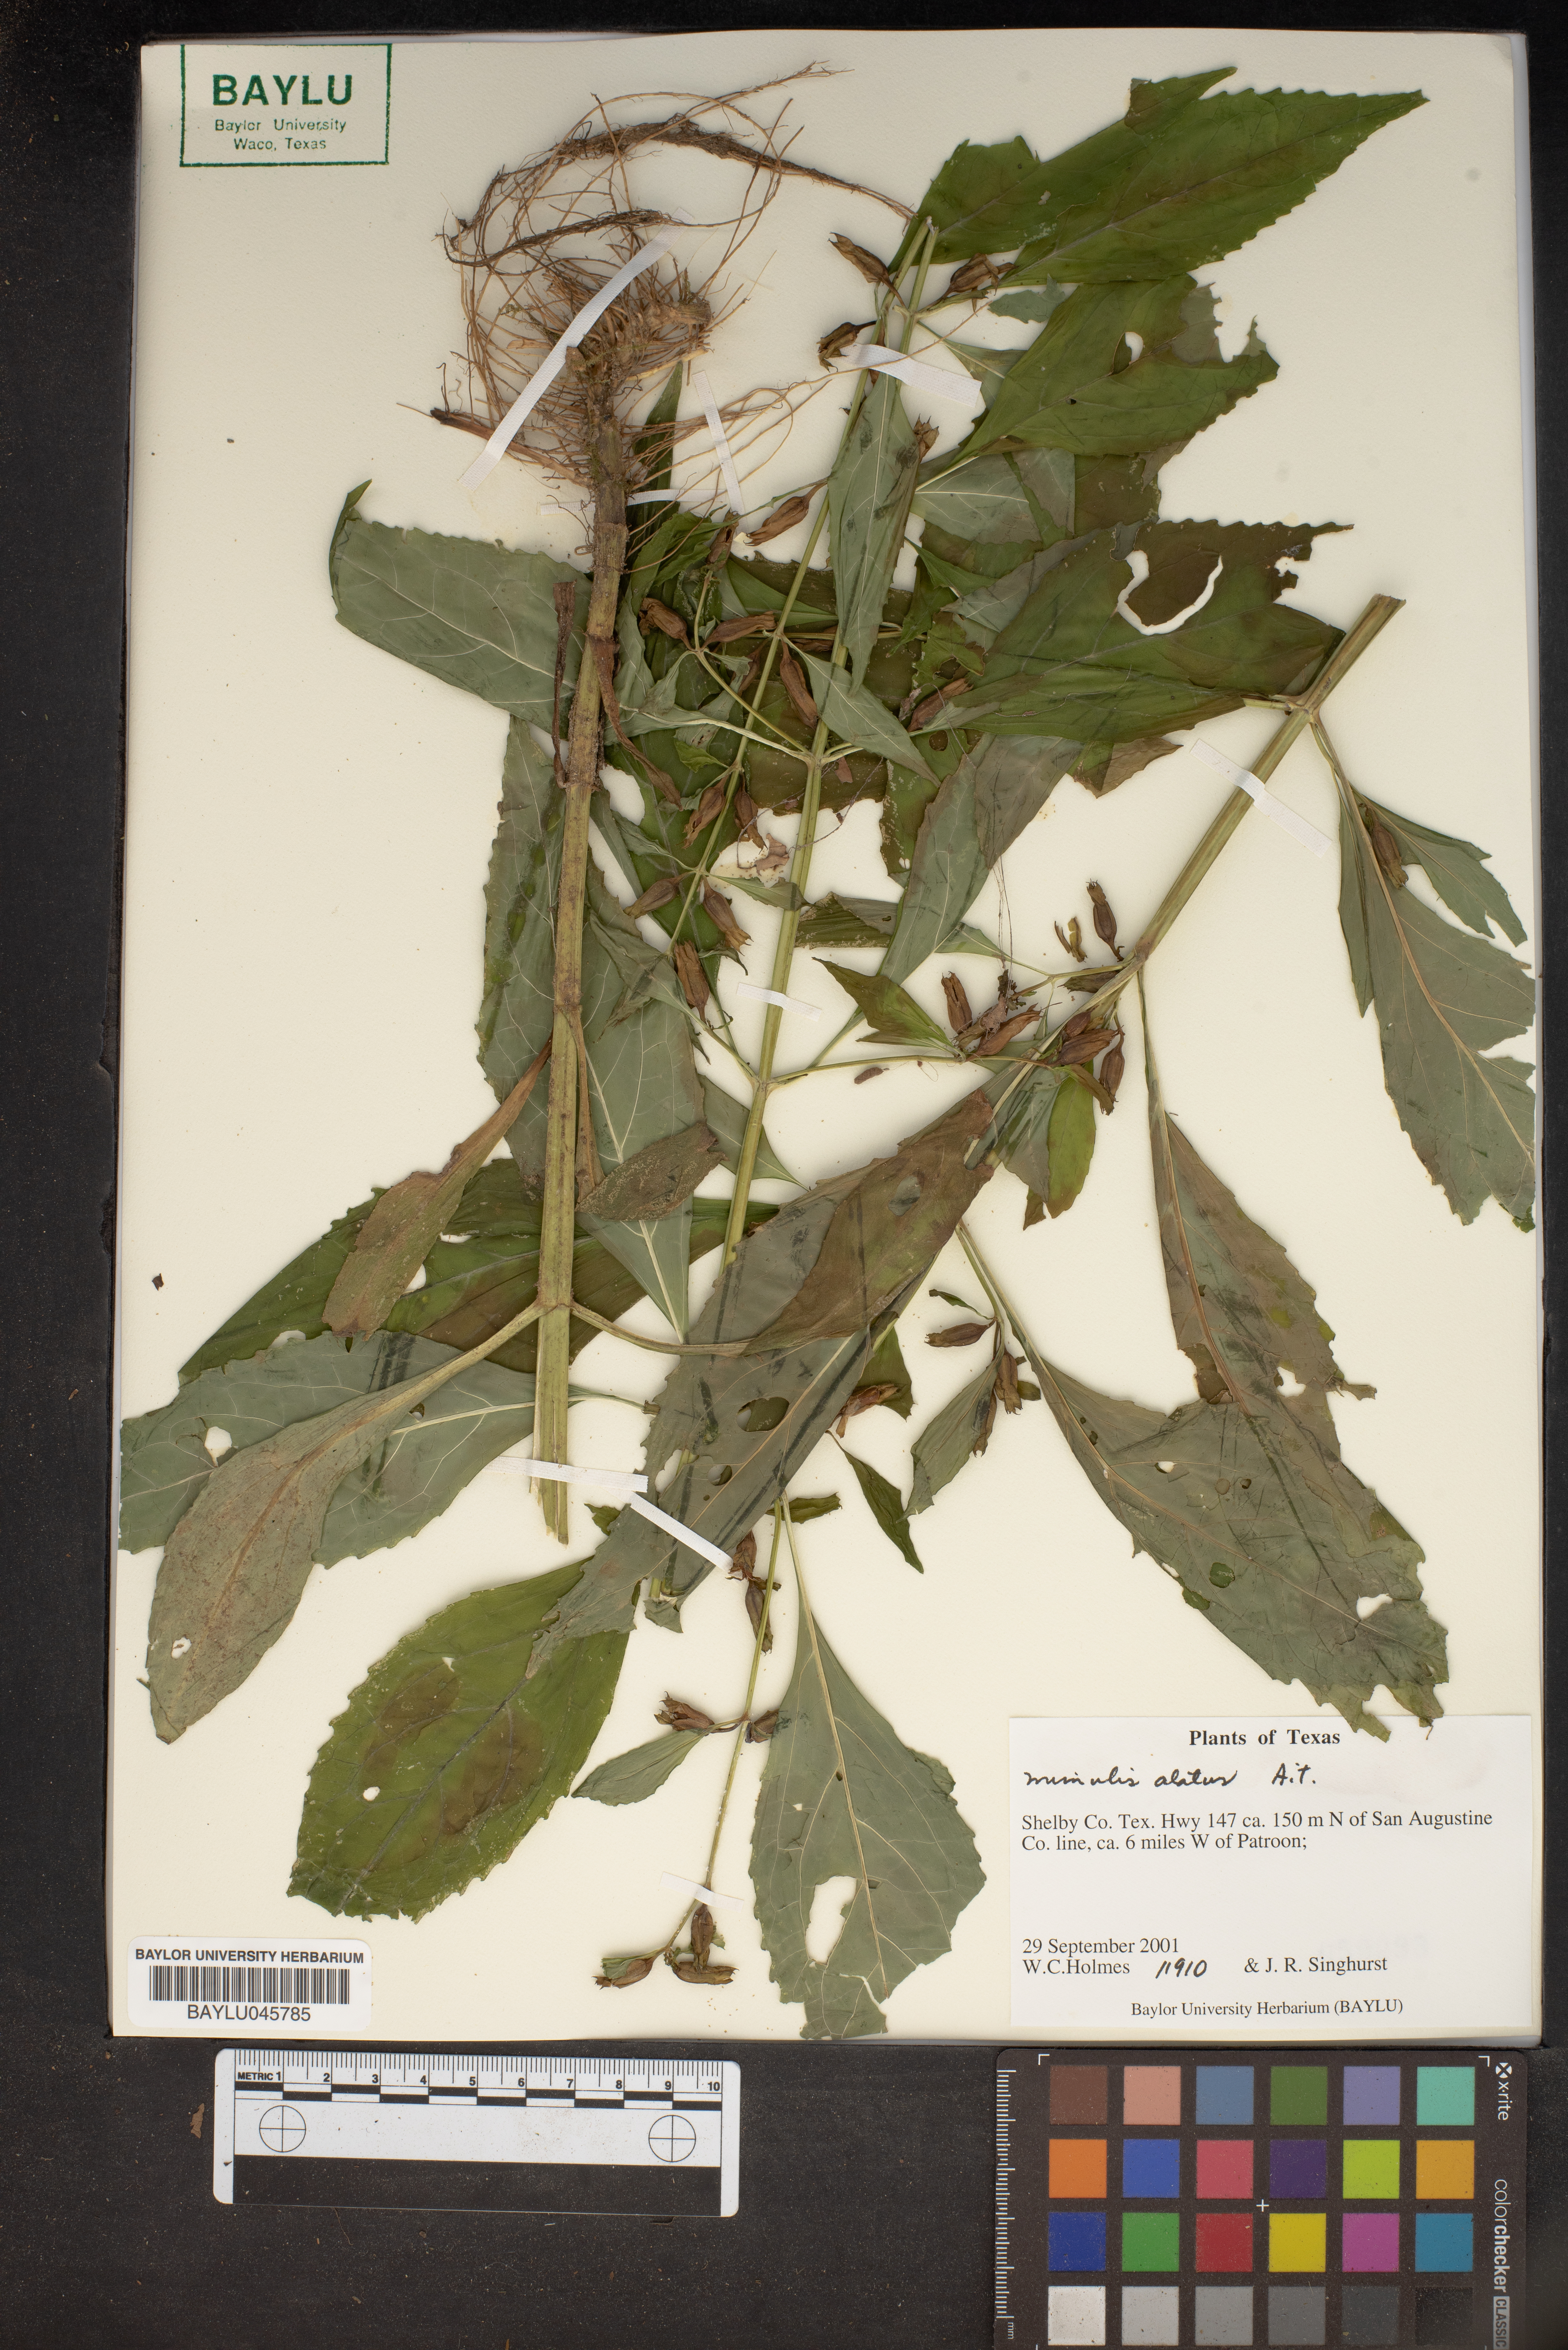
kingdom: Plantae
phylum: Tracheophyta
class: Magnoliopsida
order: Lamiales
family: Phrymaceae
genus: Mimulus
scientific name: Mimulus alatus
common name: Sharp-wing monkey-flower
